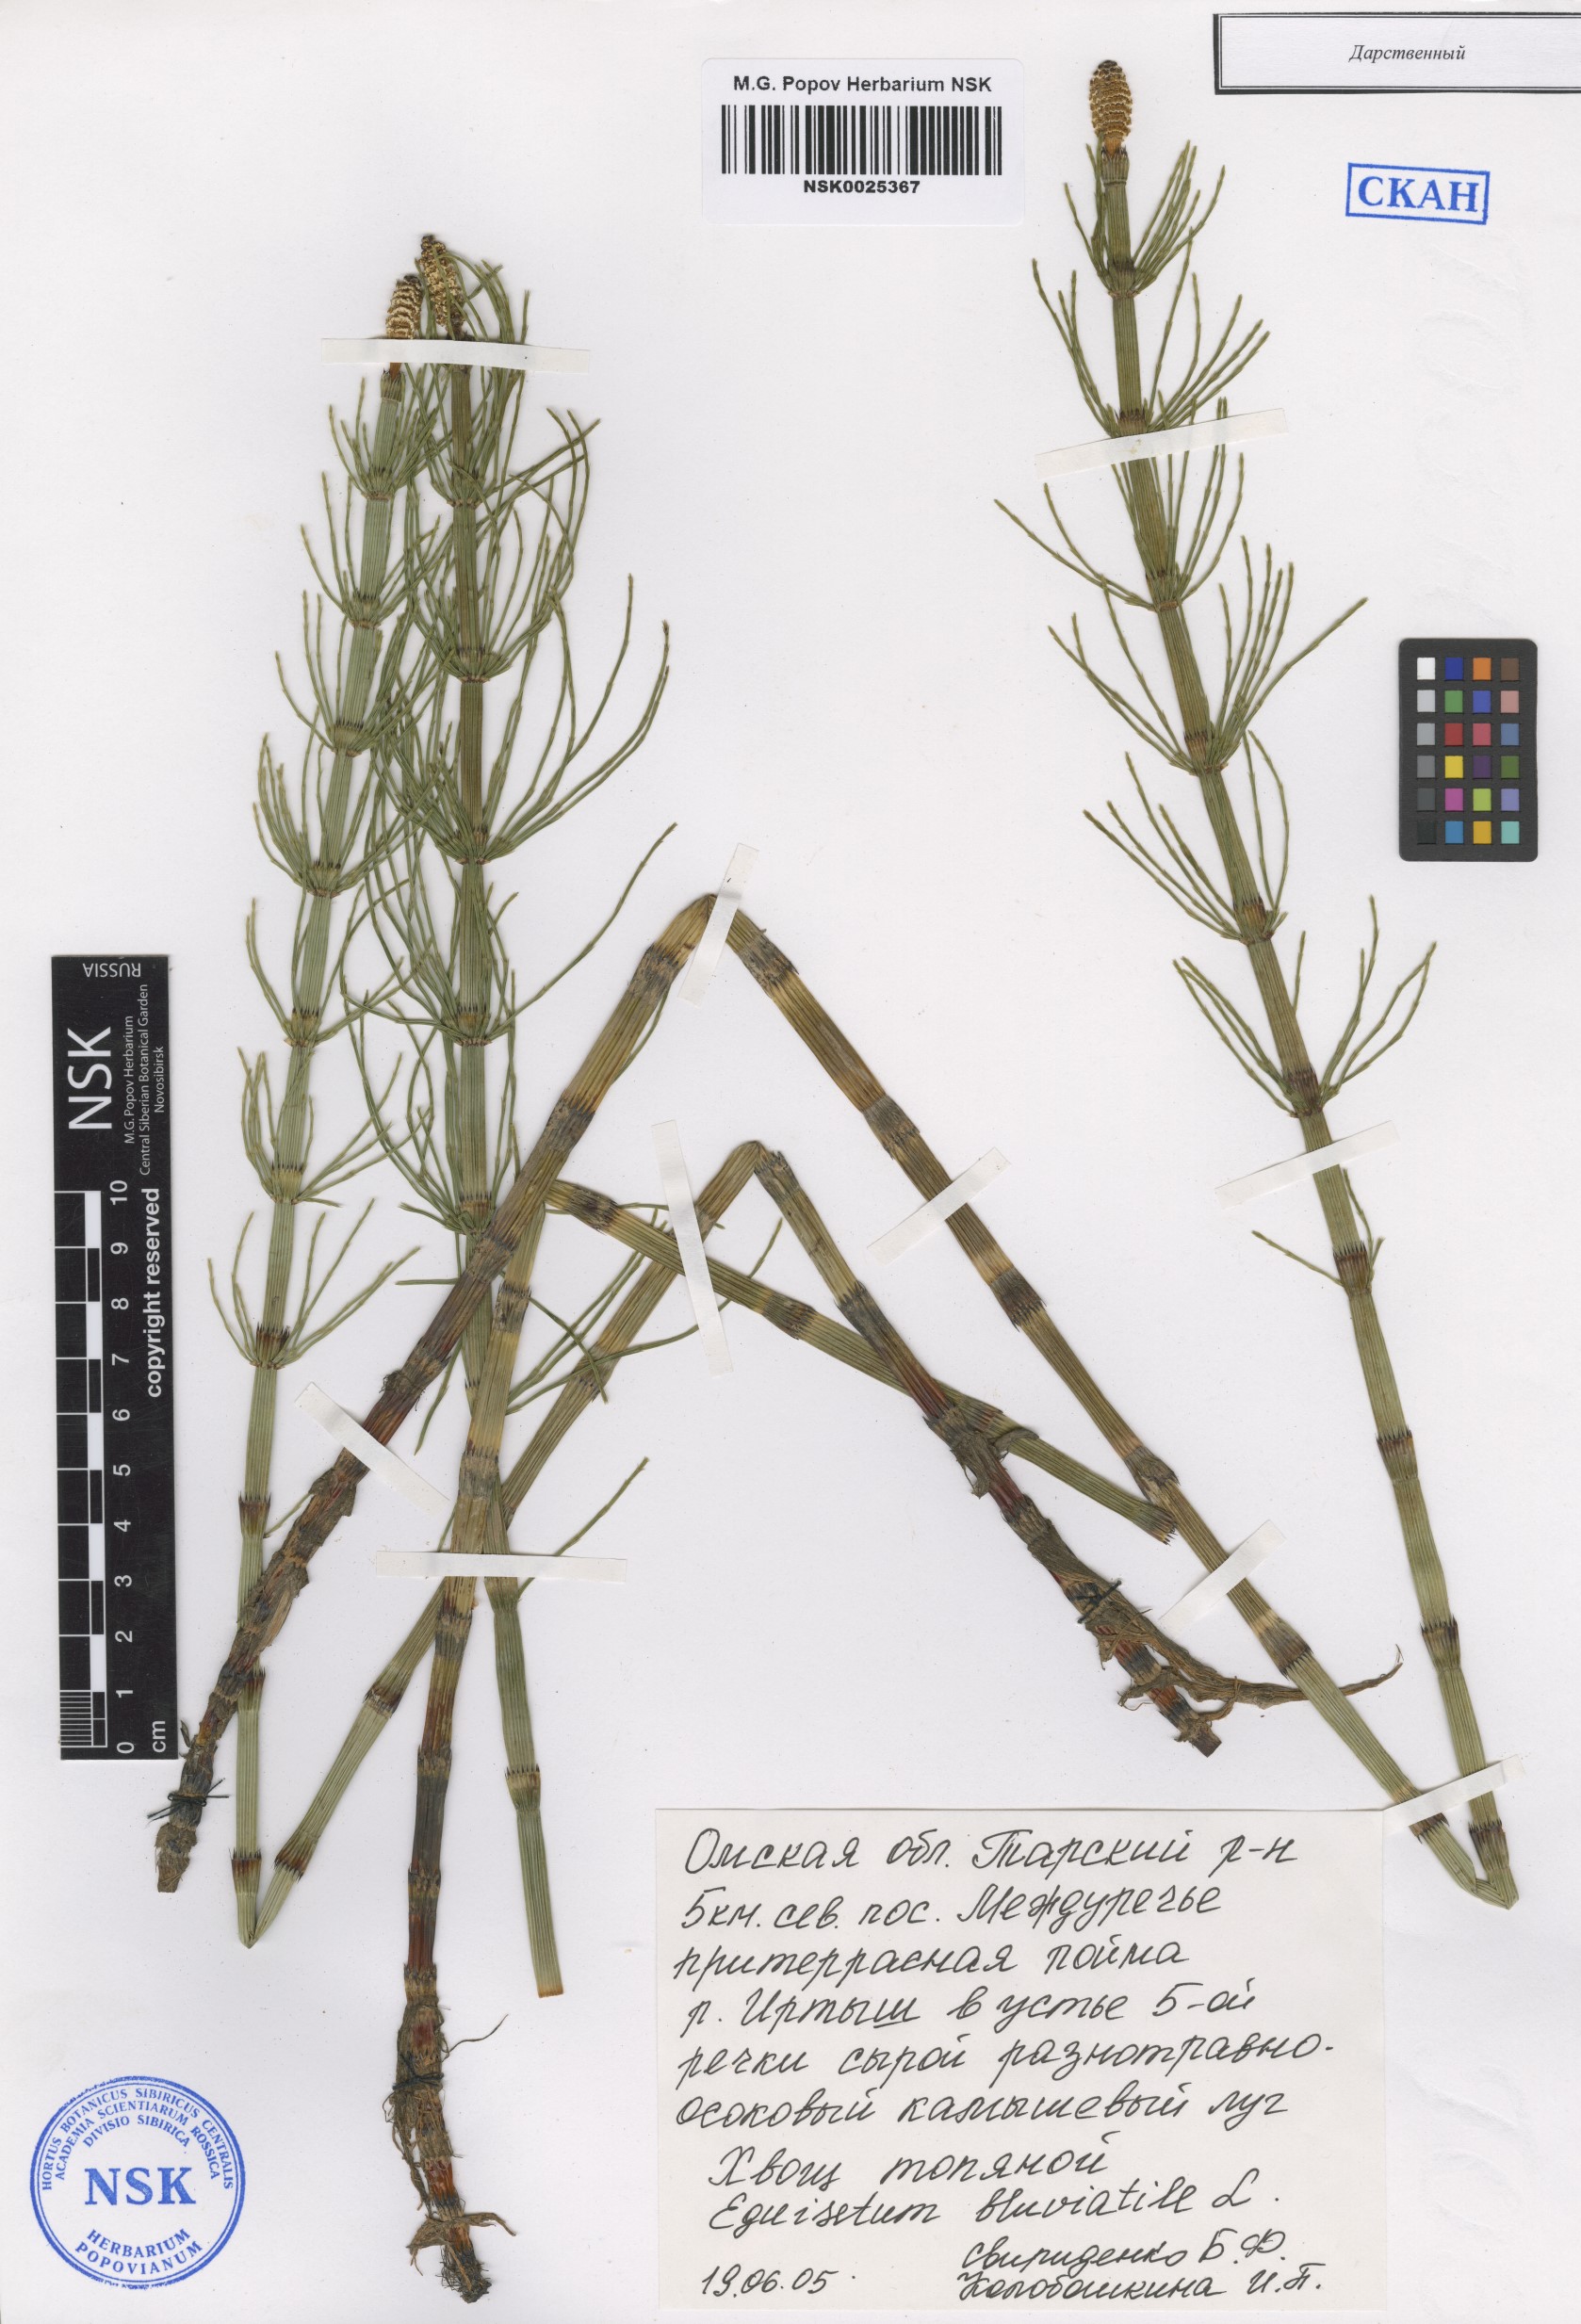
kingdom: Plantae
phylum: Tracheophyta
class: Polypodiopsida
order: Equisetales
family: Equisetaceae
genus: Equisetum
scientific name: Equisetum fluviatile
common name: Water horsetail
